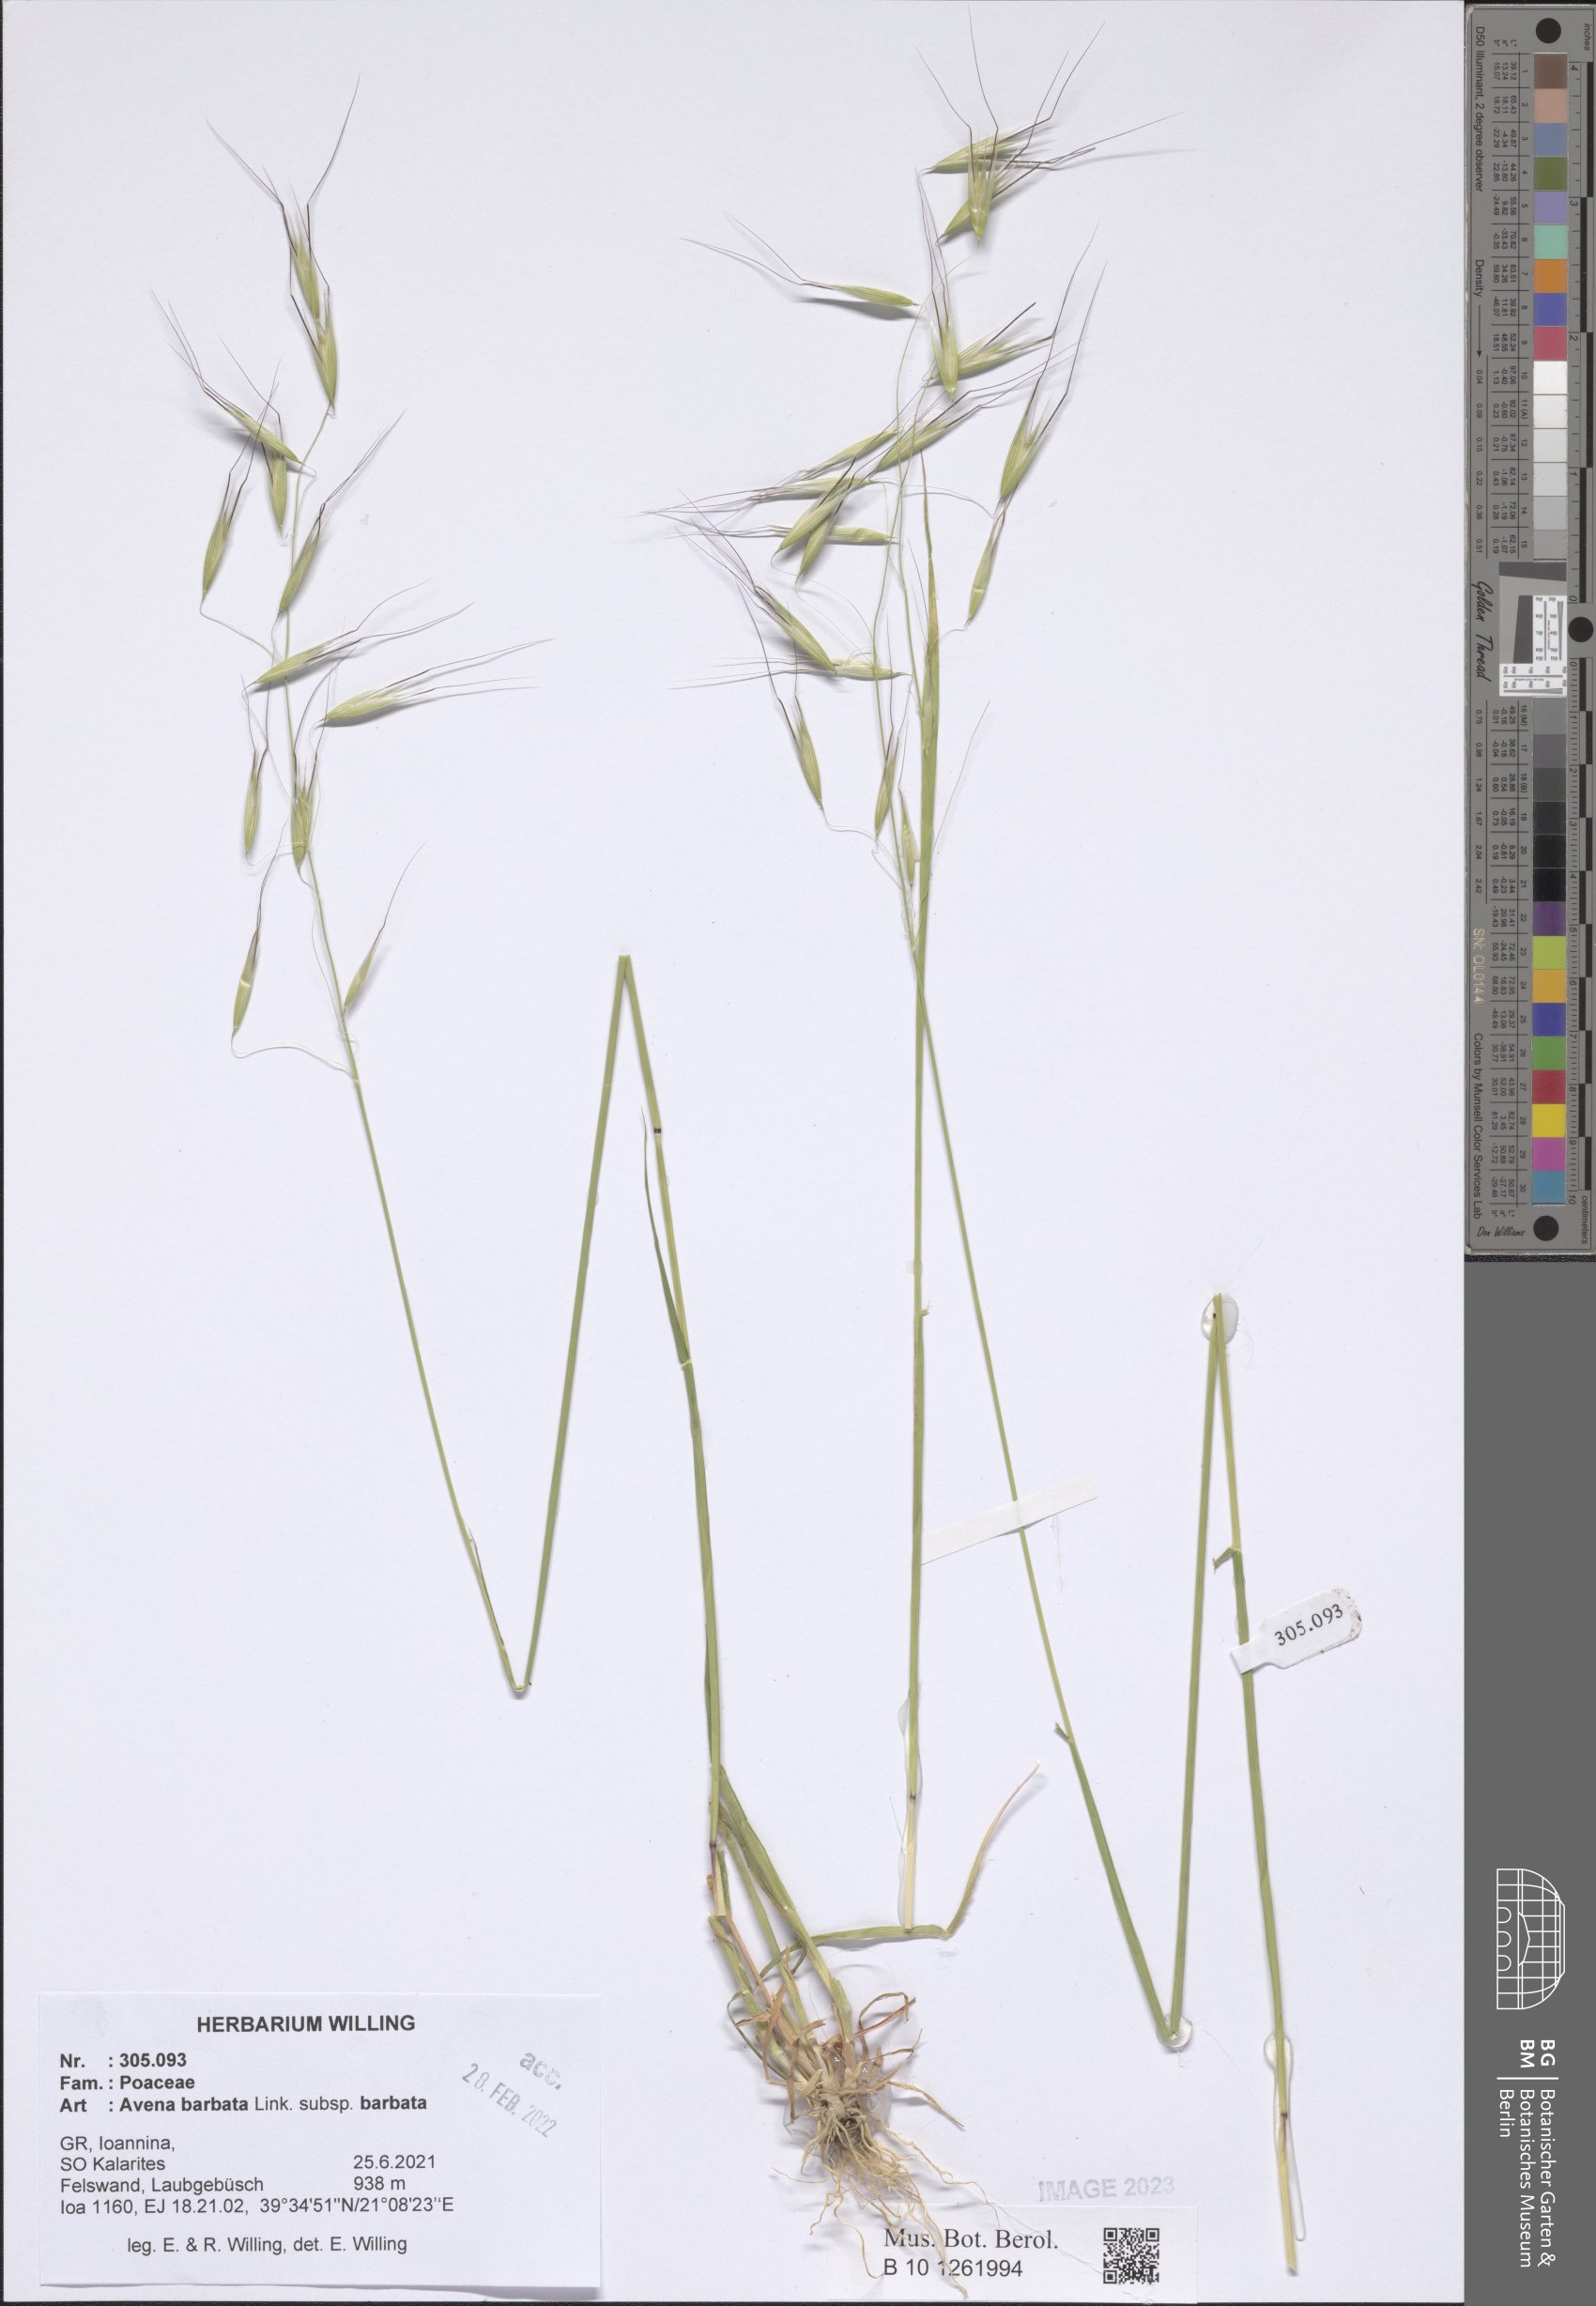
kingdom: Plantae
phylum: Tracheophyta
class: Liliopsida
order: Poales
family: Poaceae
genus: Avena
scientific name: Avena barbata
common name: Slender oat
